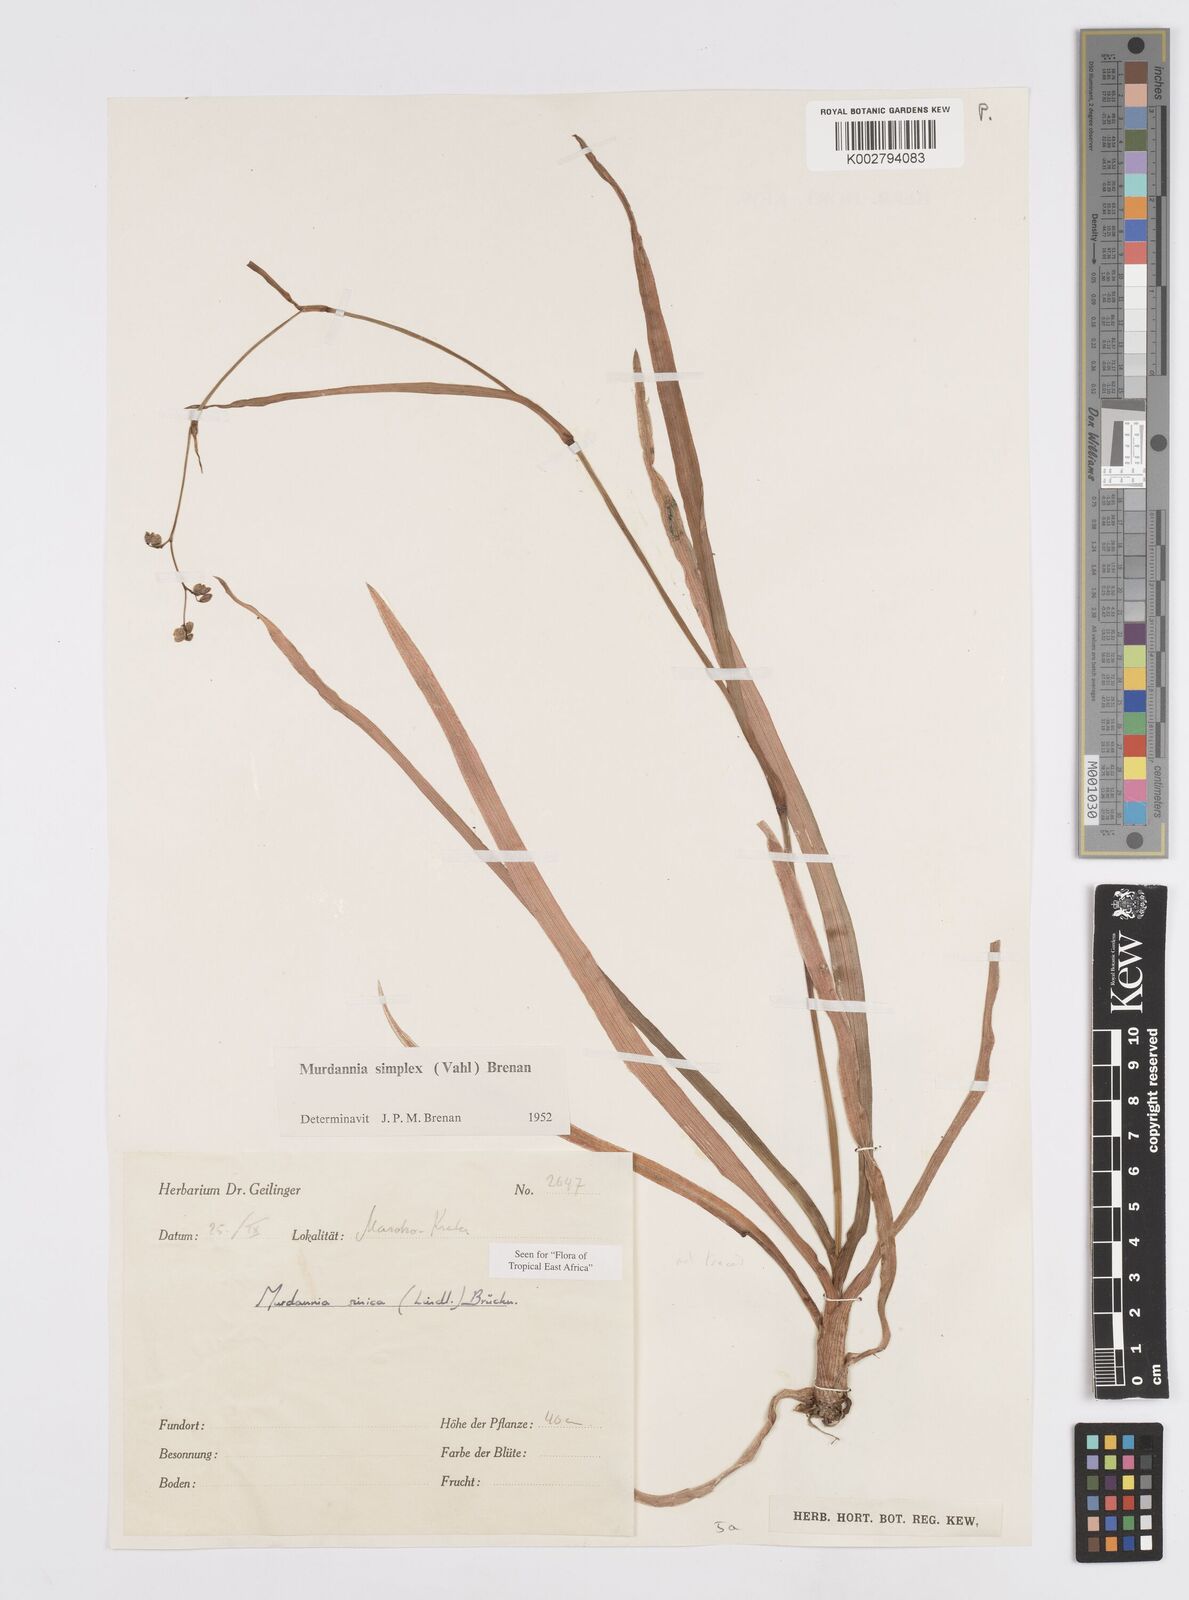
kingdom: Plantae
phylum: Tracheophyta
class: Liliopsida
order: Commelinales
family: Commelinaceae
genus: Murdannia
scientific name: Murdannia simplex
